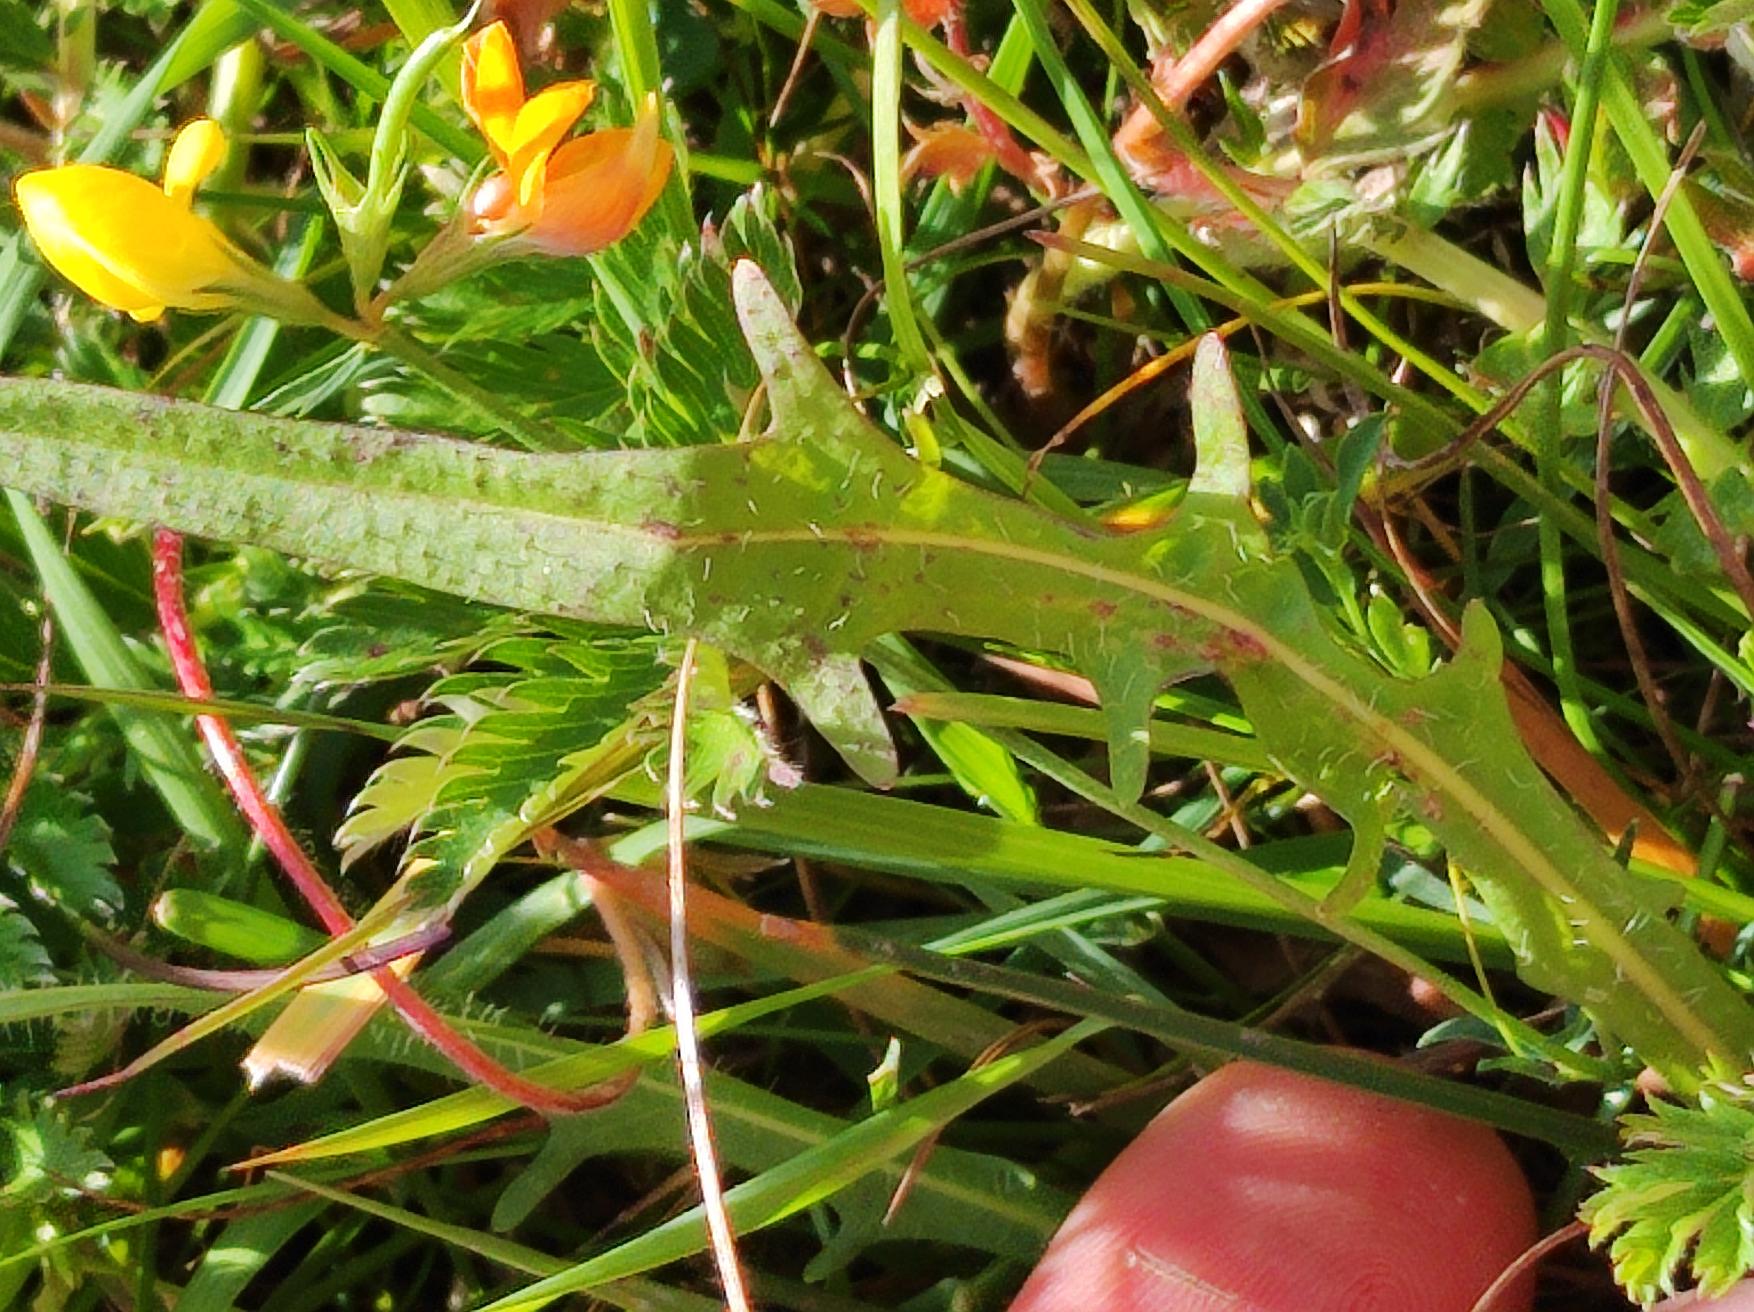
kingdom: Plantae
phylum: Tracheophyta
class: Magnoliopsida
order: Asterales
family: Asteraceae
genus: Scorzoneroides
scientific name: Scorzoneroides autumnalis
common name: Høst-borst
